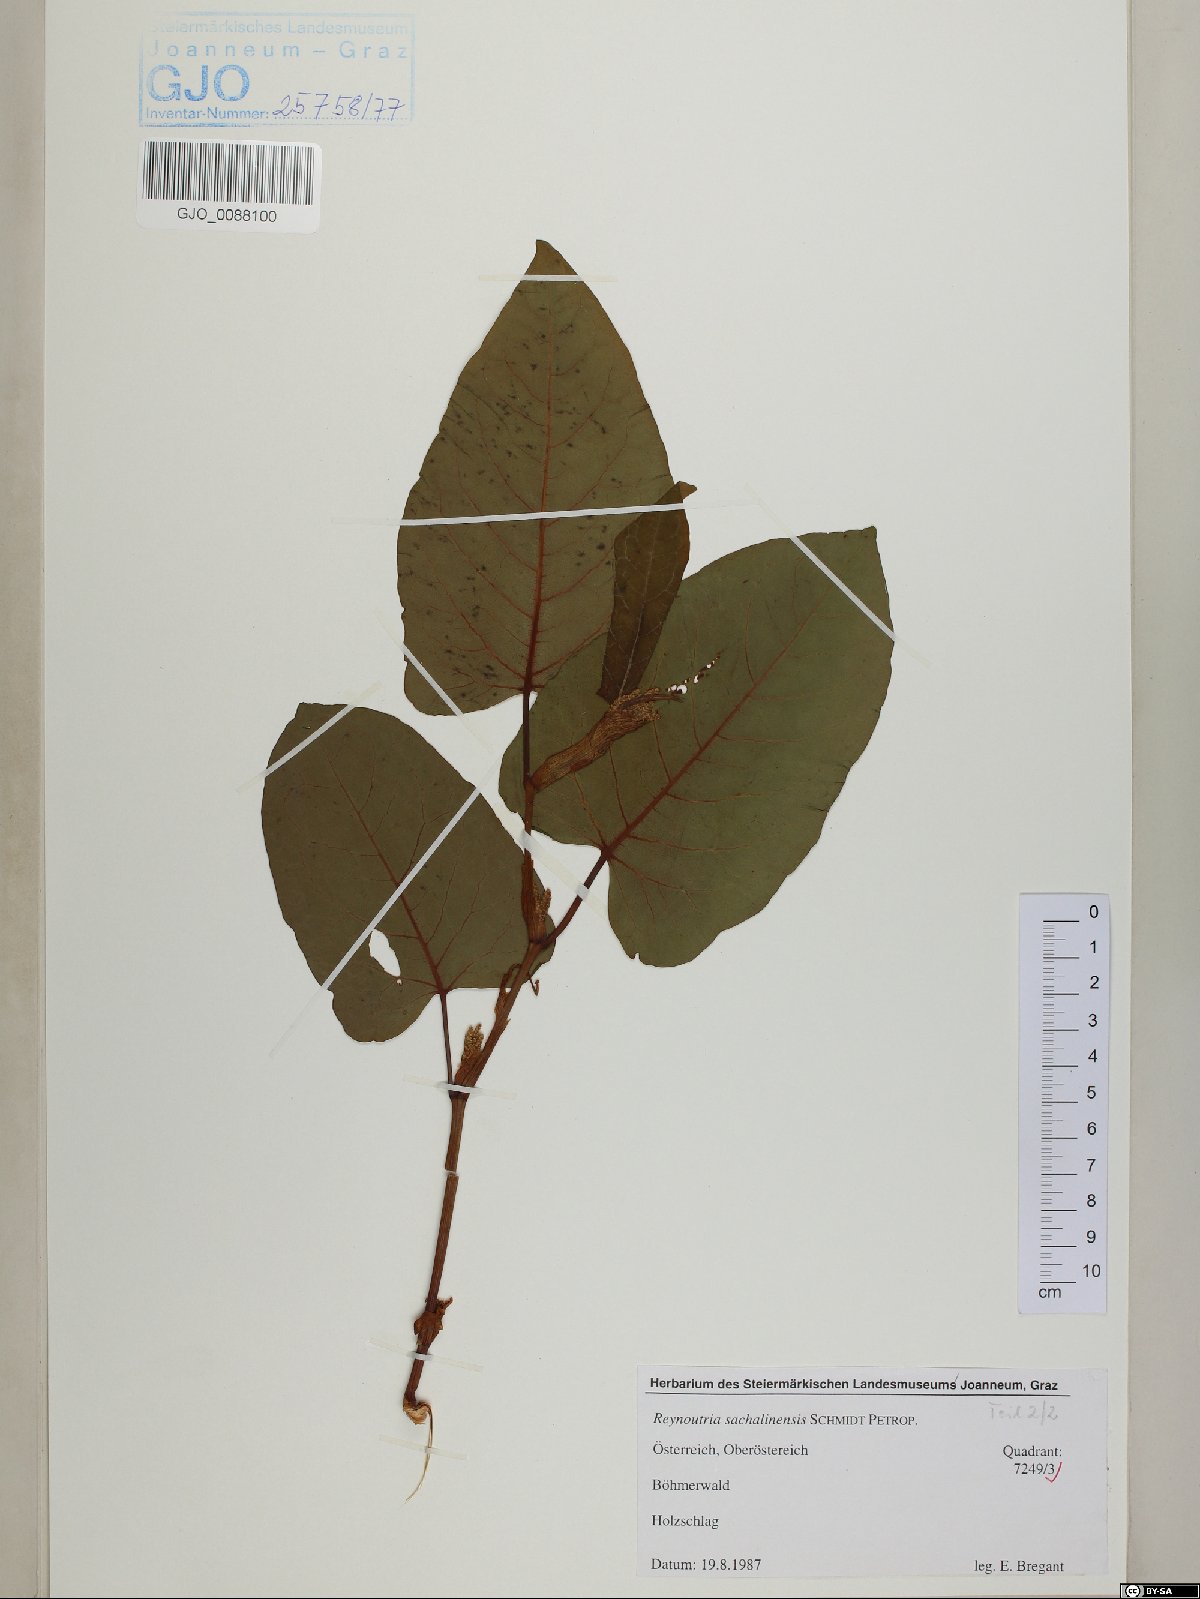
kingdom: Plantae
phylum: Tracheophyta
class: Magnoliopsida
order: Caryophyllales
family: Polygonaceae
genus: Reynoutria
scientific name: Reynoutria sachalinensis
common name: Giant knotweed
